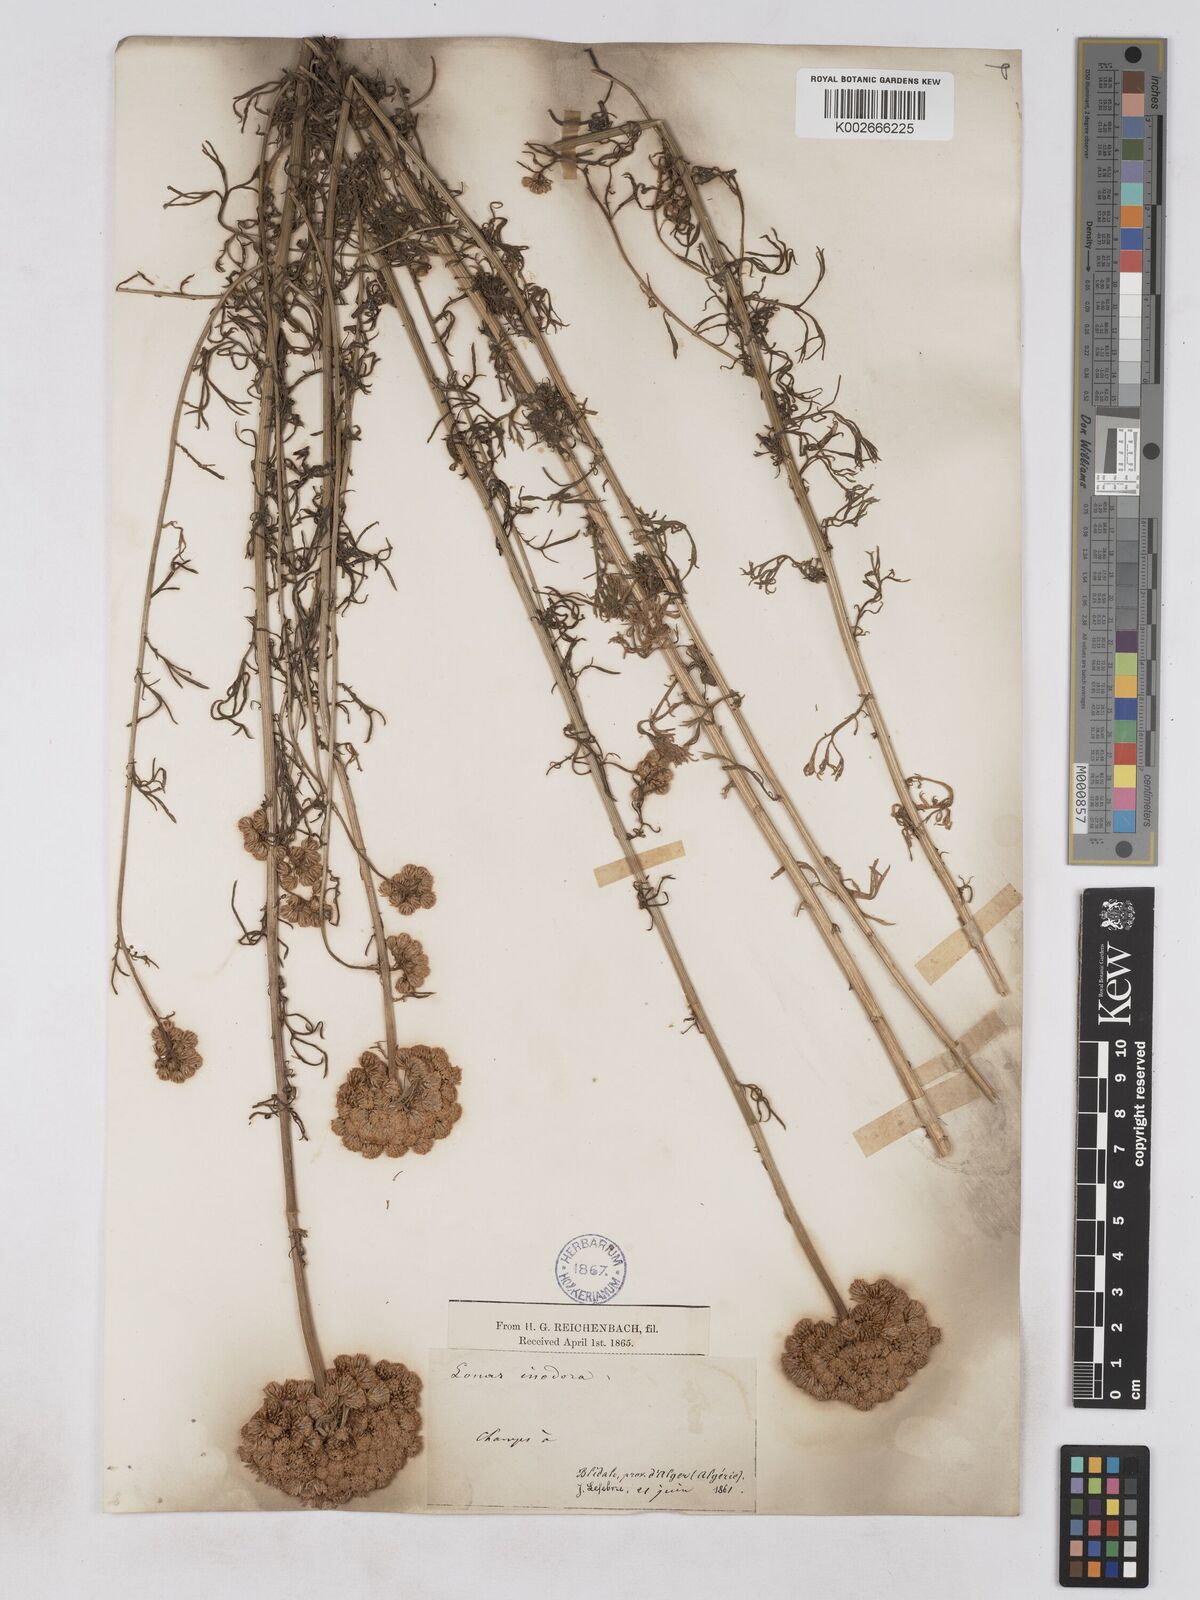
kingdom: Plantae
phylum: Tracheophyta
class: Magnoliopsida
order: Asterales
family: Asteraceae
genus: Lonas
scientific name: Lonas
